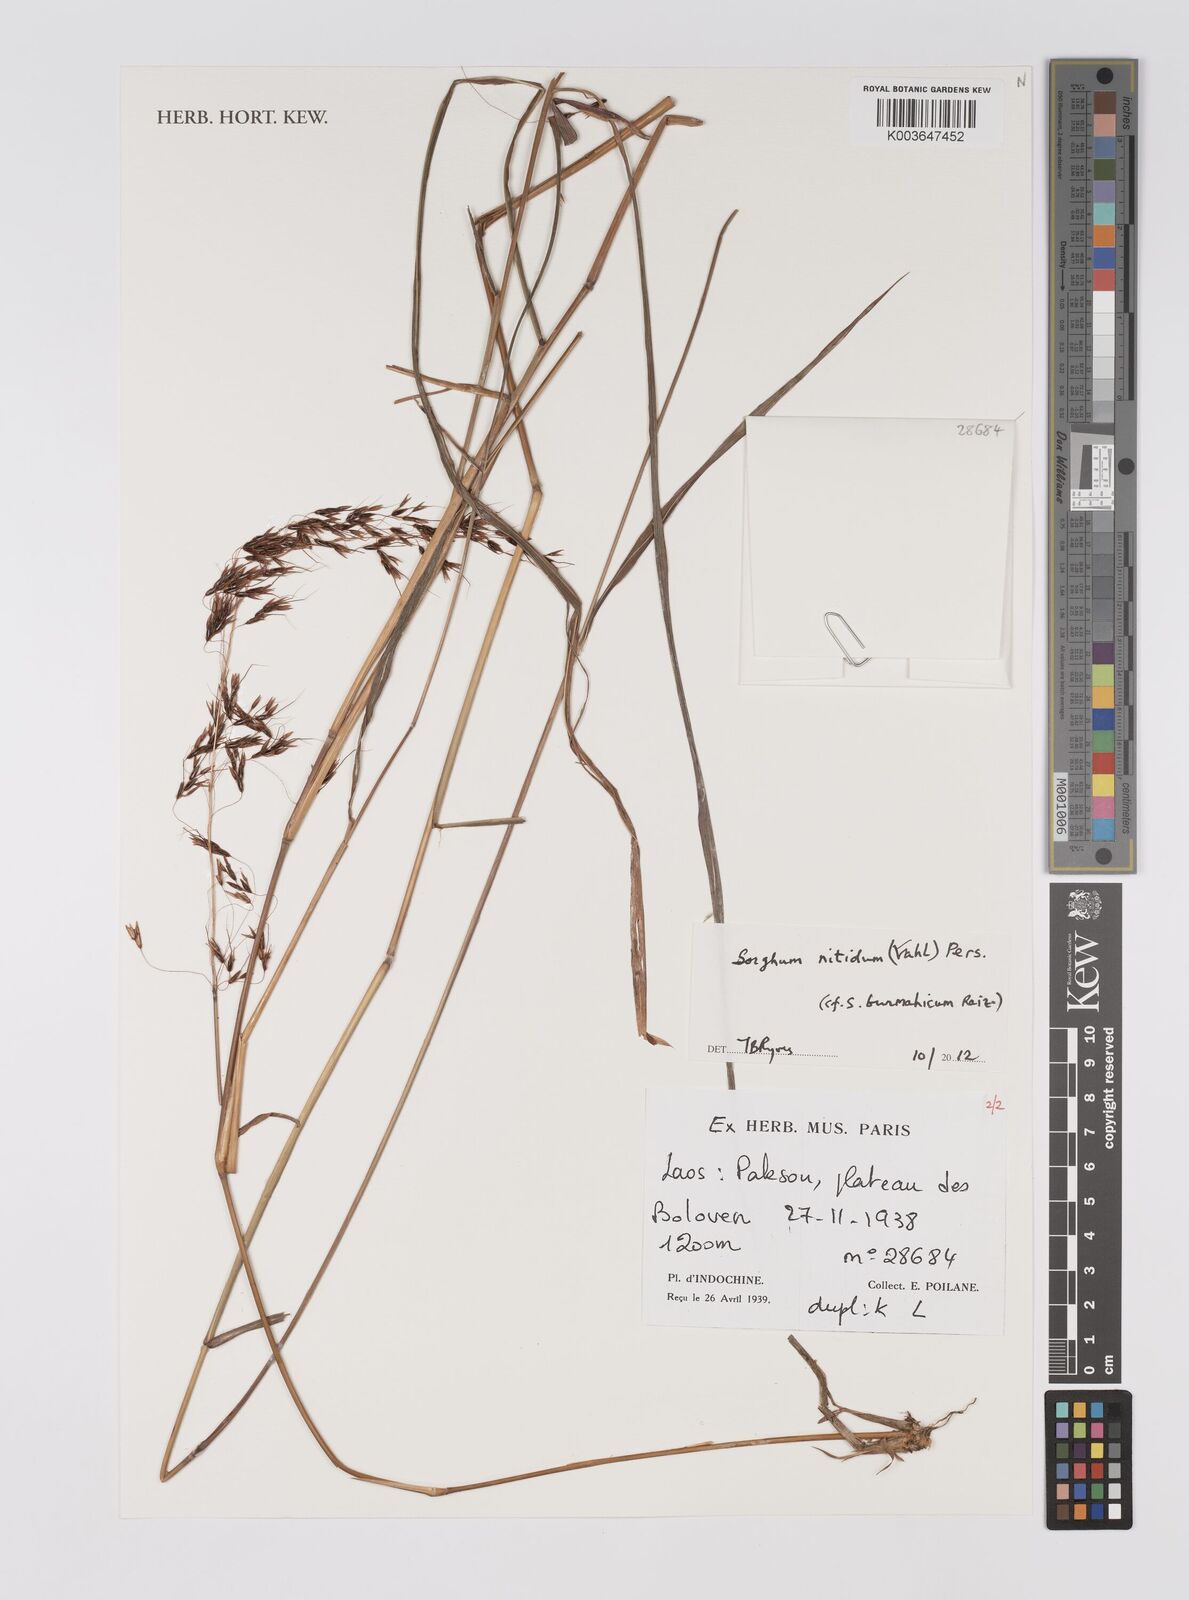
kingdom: Plantae
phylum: Tracheophyta
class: Liliopsida
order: Poales
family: Poaceae
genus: Sorghum
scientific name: Sorghum nitidum
